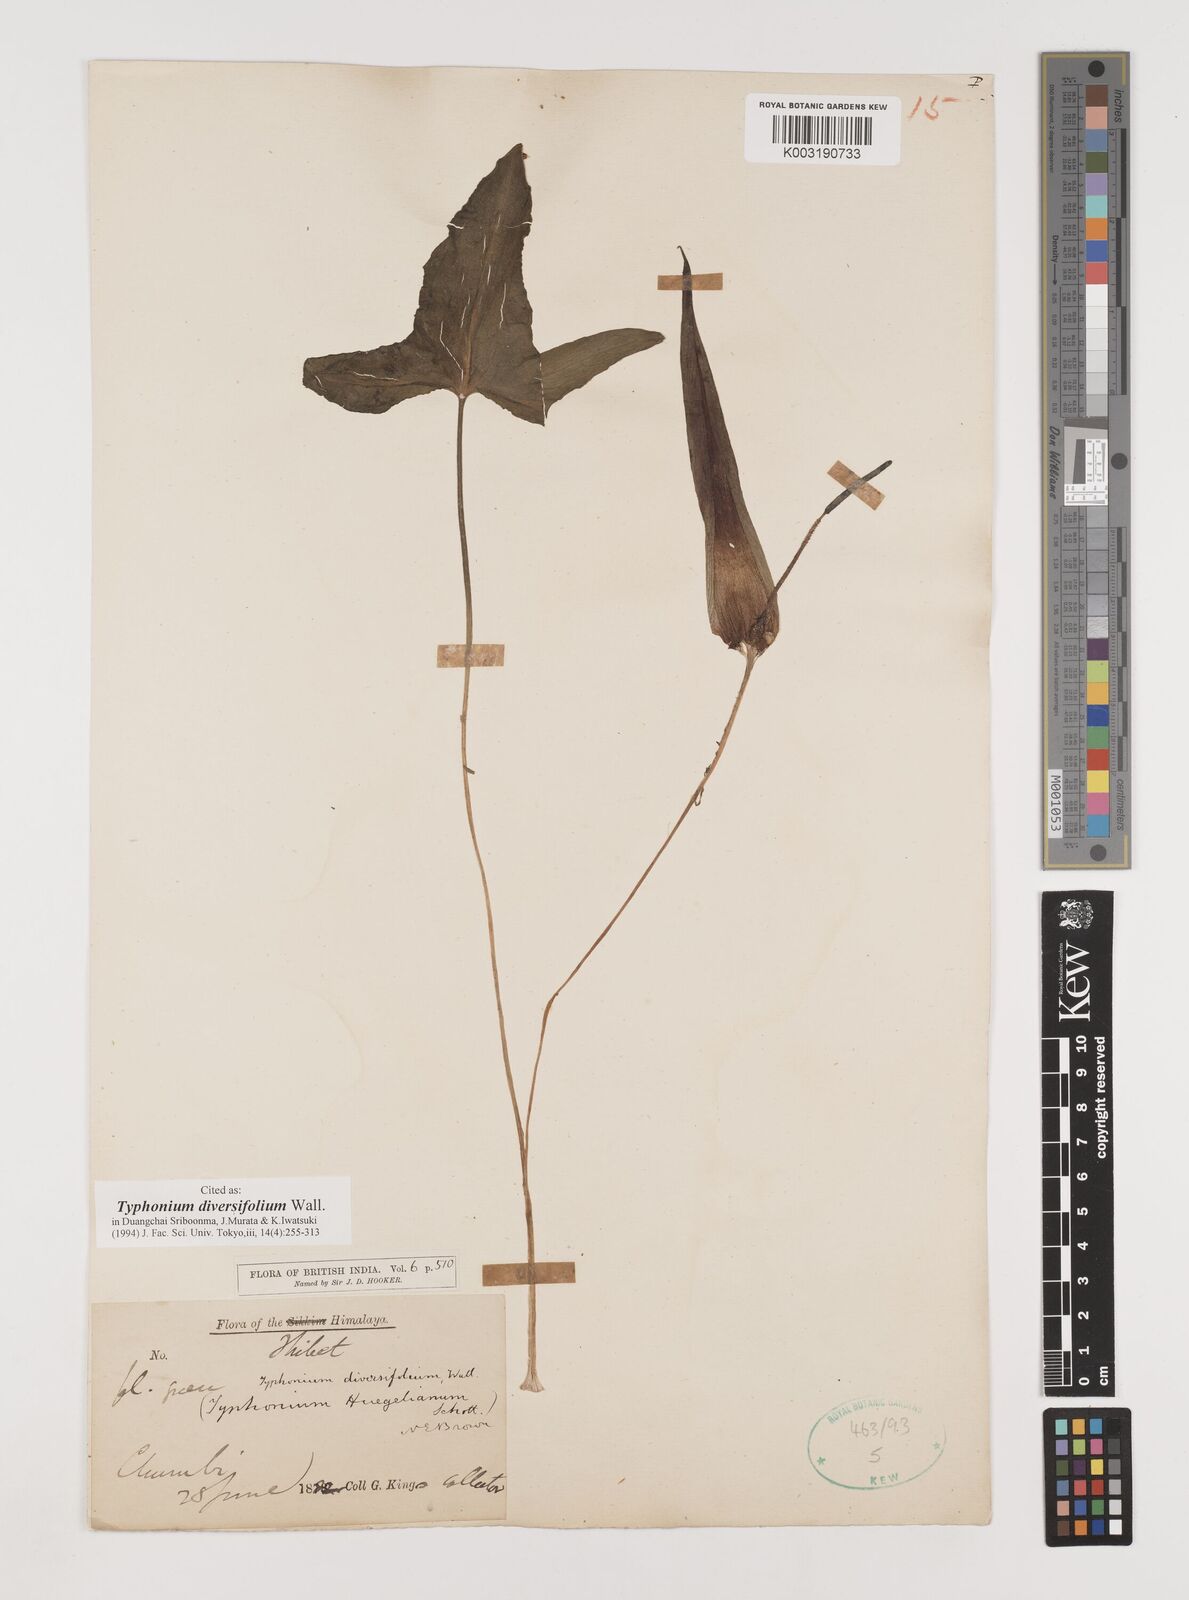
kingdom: Plantae
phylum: Tracheophyta
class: Liliopsida
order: Alismatales
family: Araceae
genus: Sauromatum
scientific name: Sauromatum diversifolium
